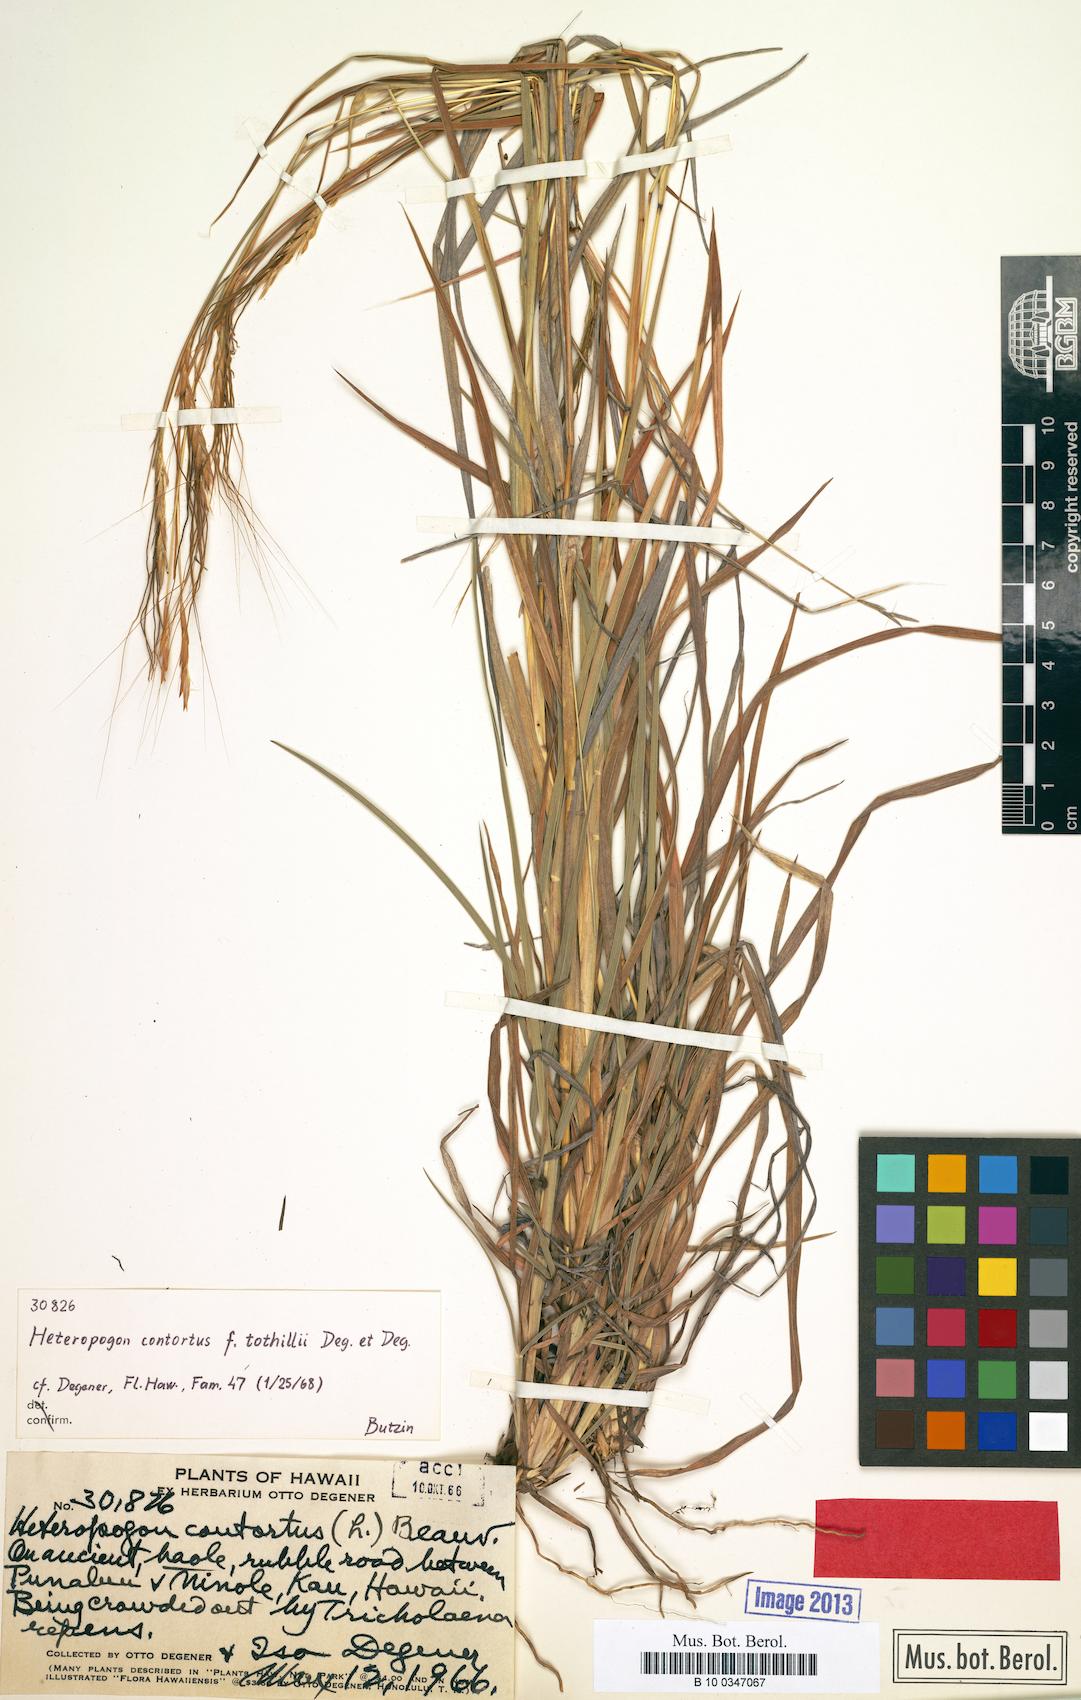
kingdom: Plantae
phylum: Tracheophyta
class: Liliopsida
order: Poales
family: Poaceae
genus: Heteropogon
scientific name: Heteropogon contortus
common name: Tanglehead
